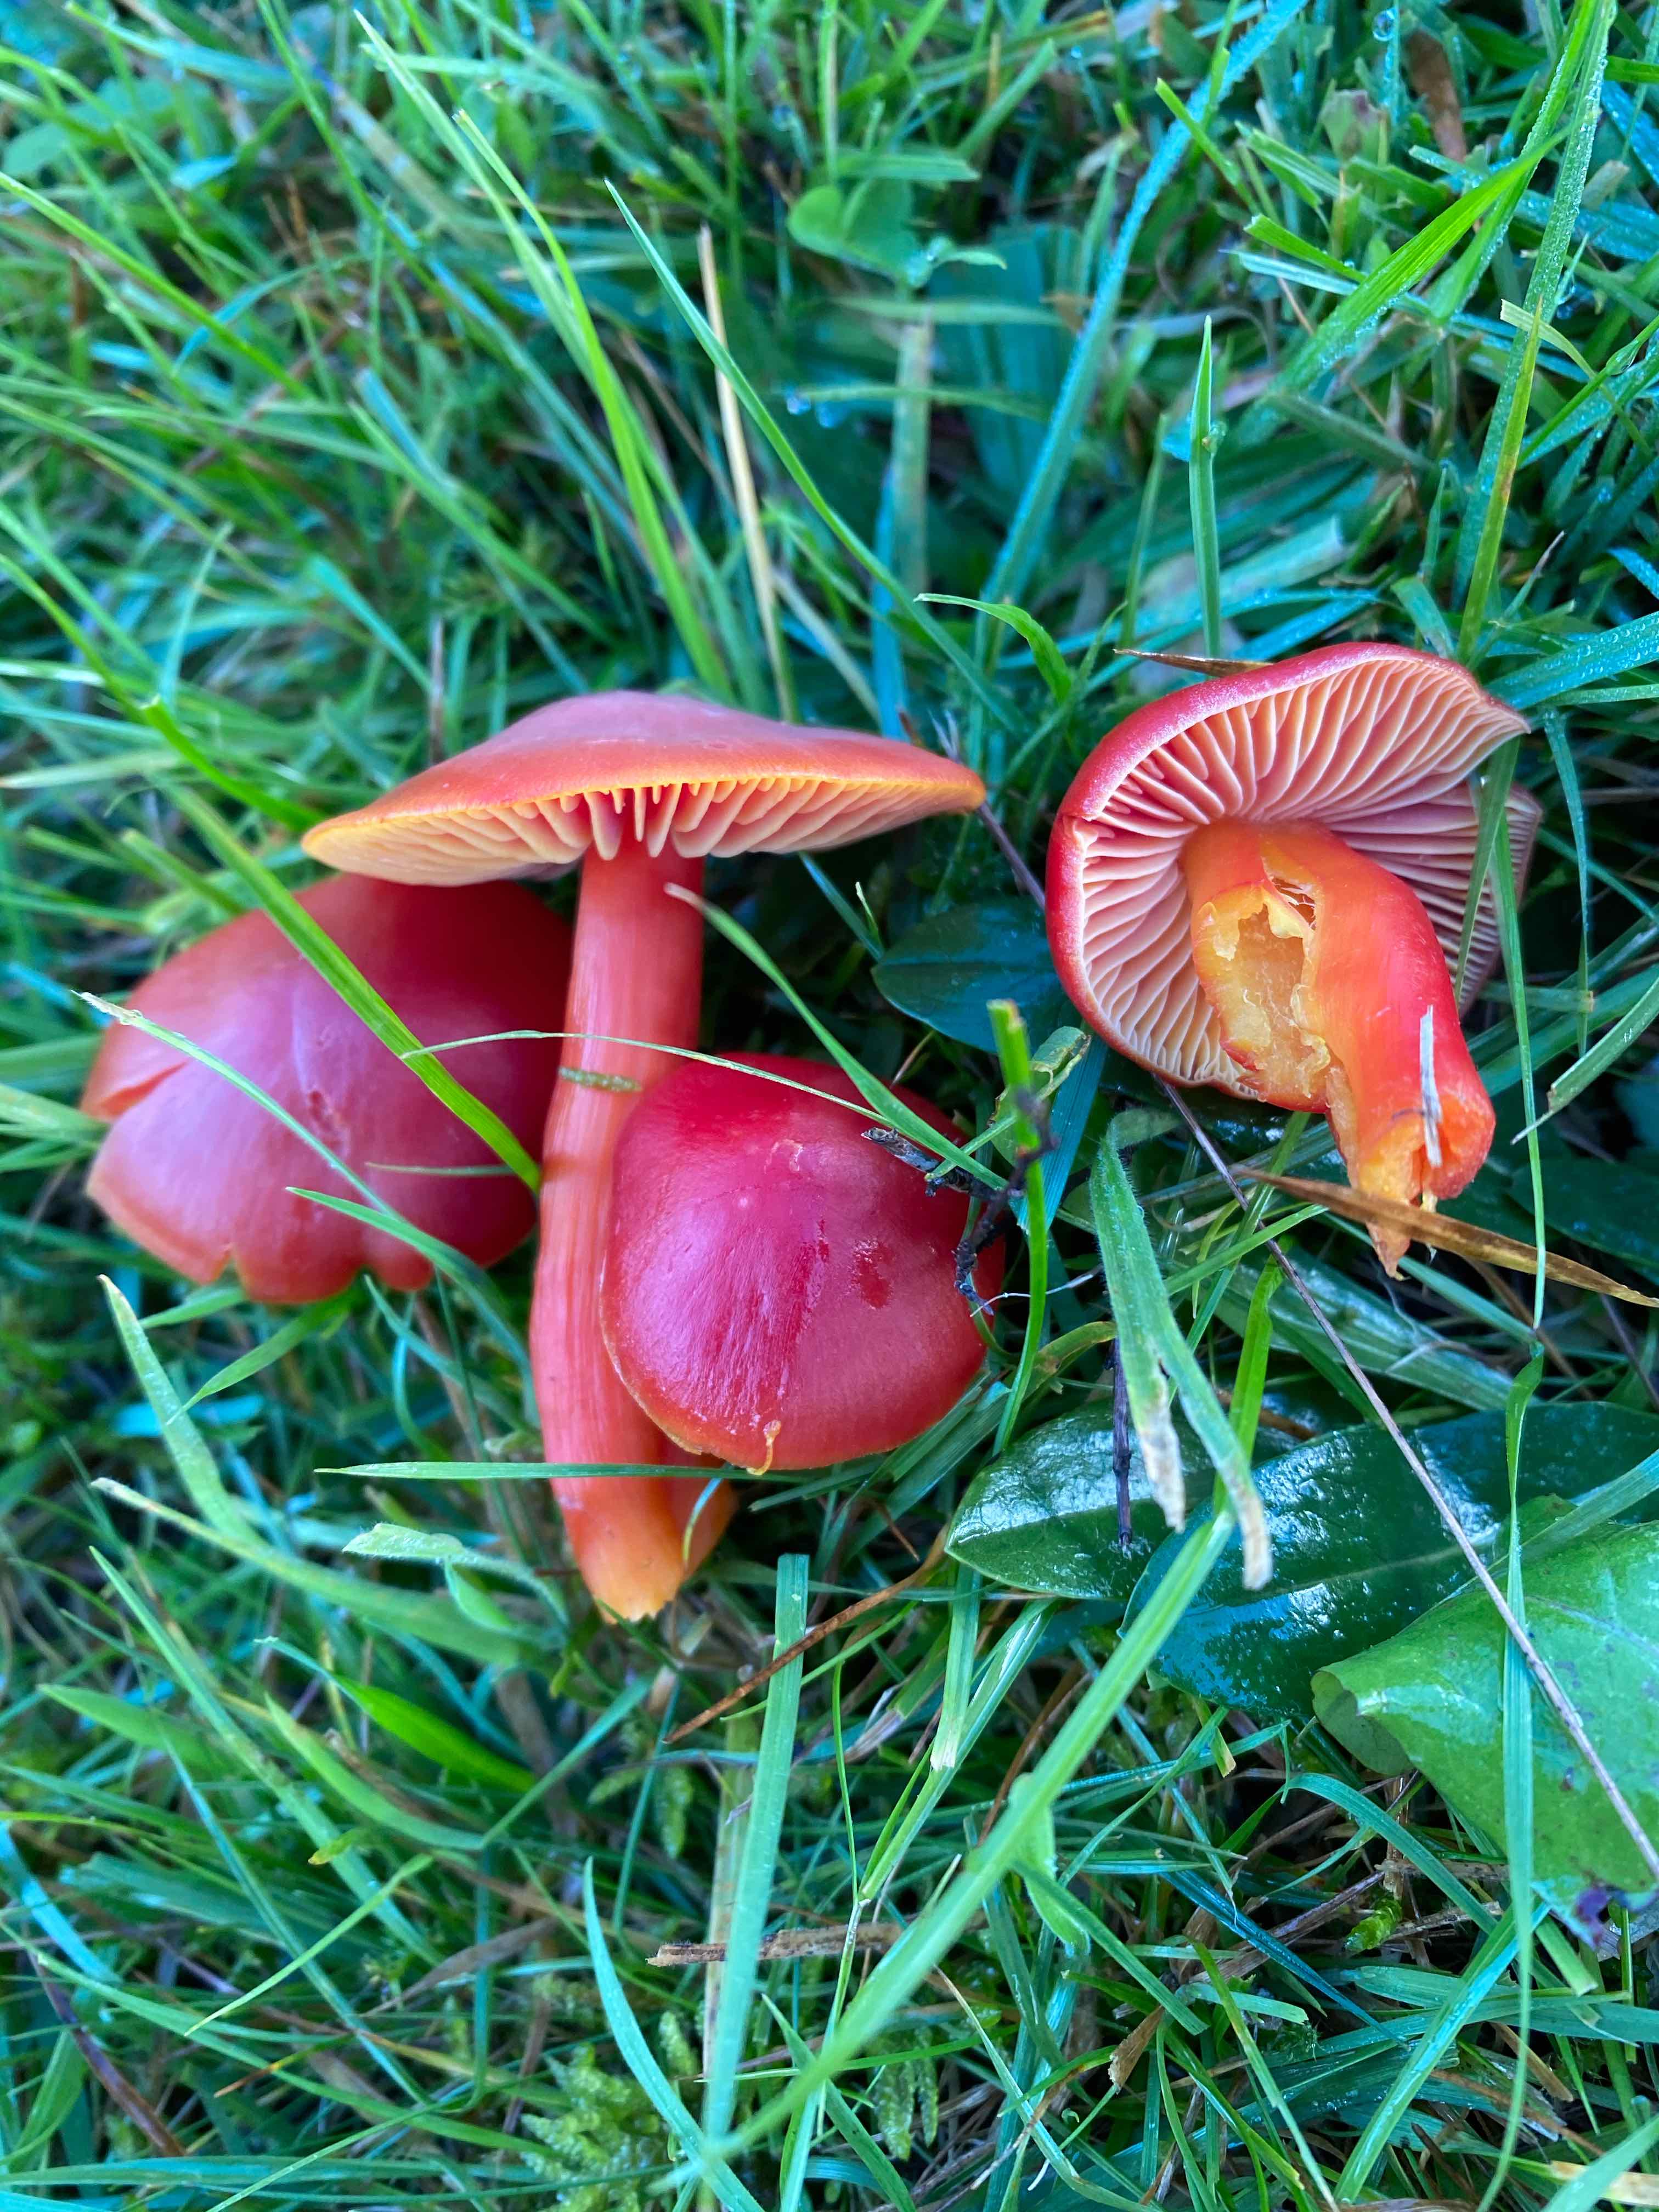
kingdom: Fungi
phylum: Basidiomycota
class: Agaricomycetes
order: Agaricales
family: Hygrophoraceae
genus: Hygrocybe
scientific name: Hygrocybe coccinea
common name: cinnober-vokshat
